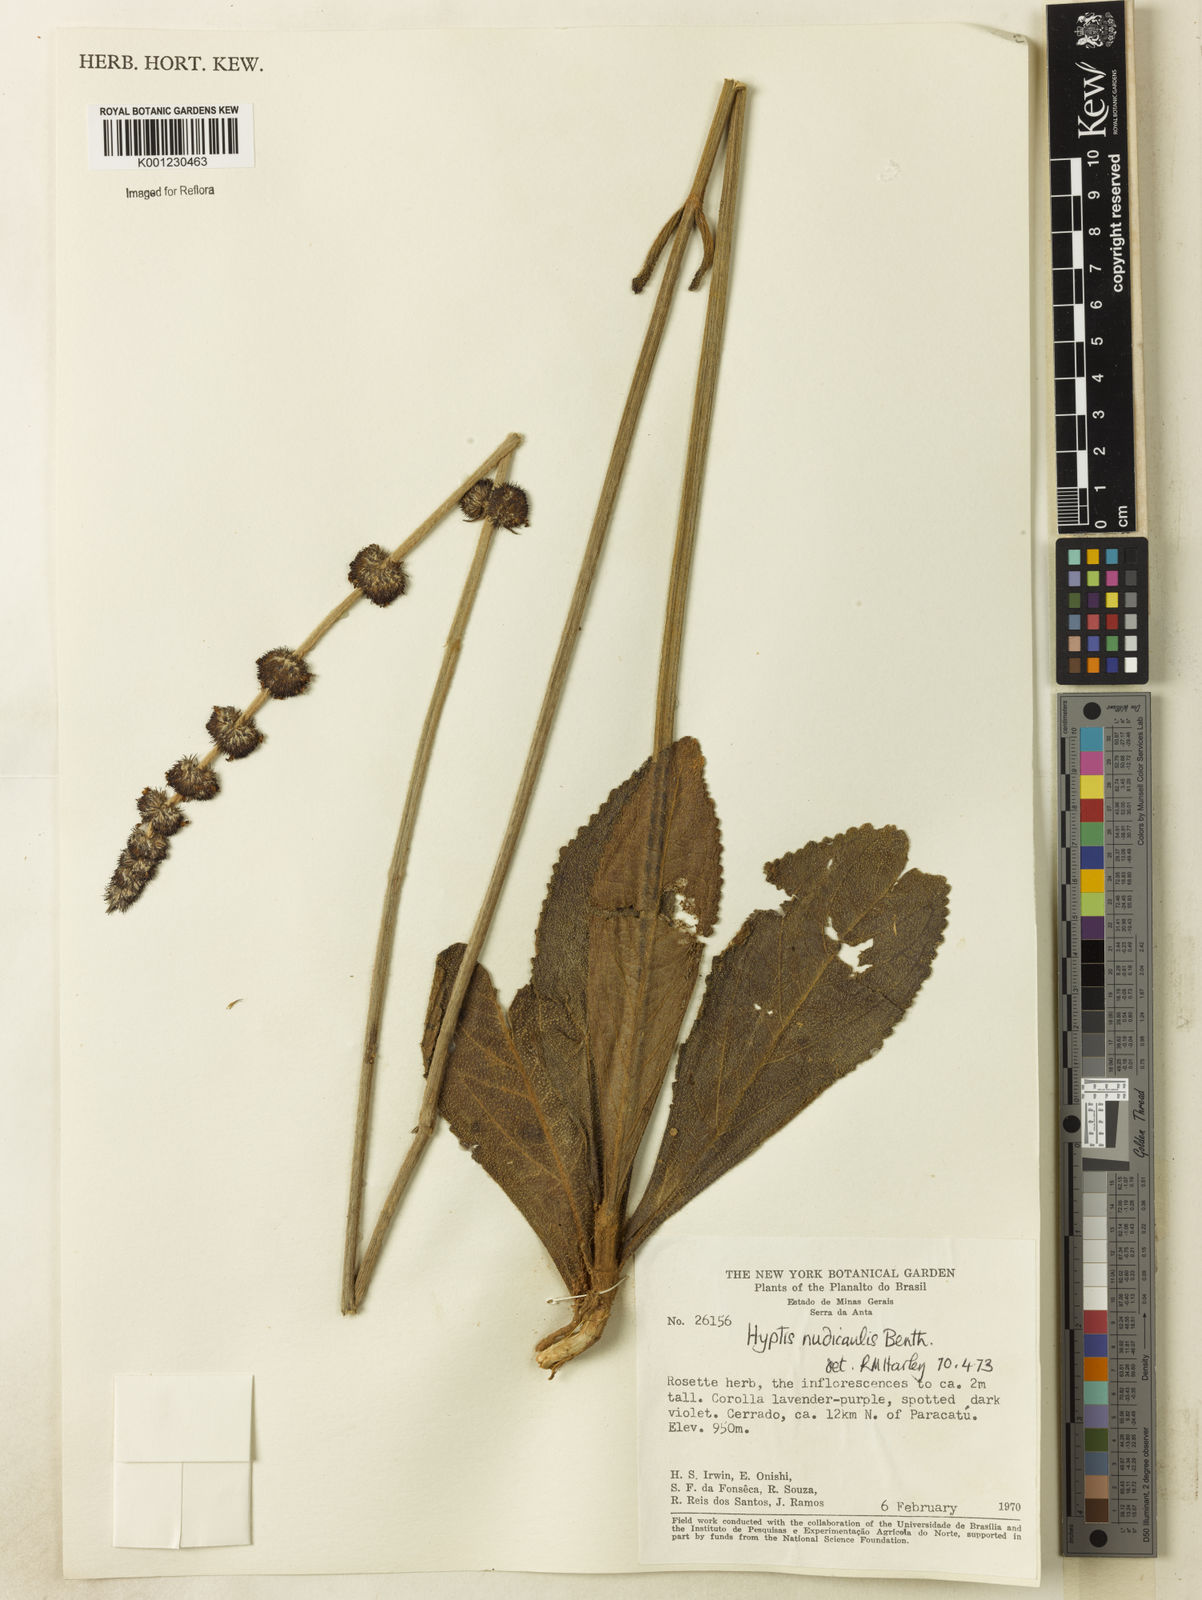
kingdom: Plantae
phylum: Tracheophyta
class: Magnoliopsida
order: Lamiales
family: Lamiaceae
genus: Hyptis
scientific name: Hyptis nudicaulis
